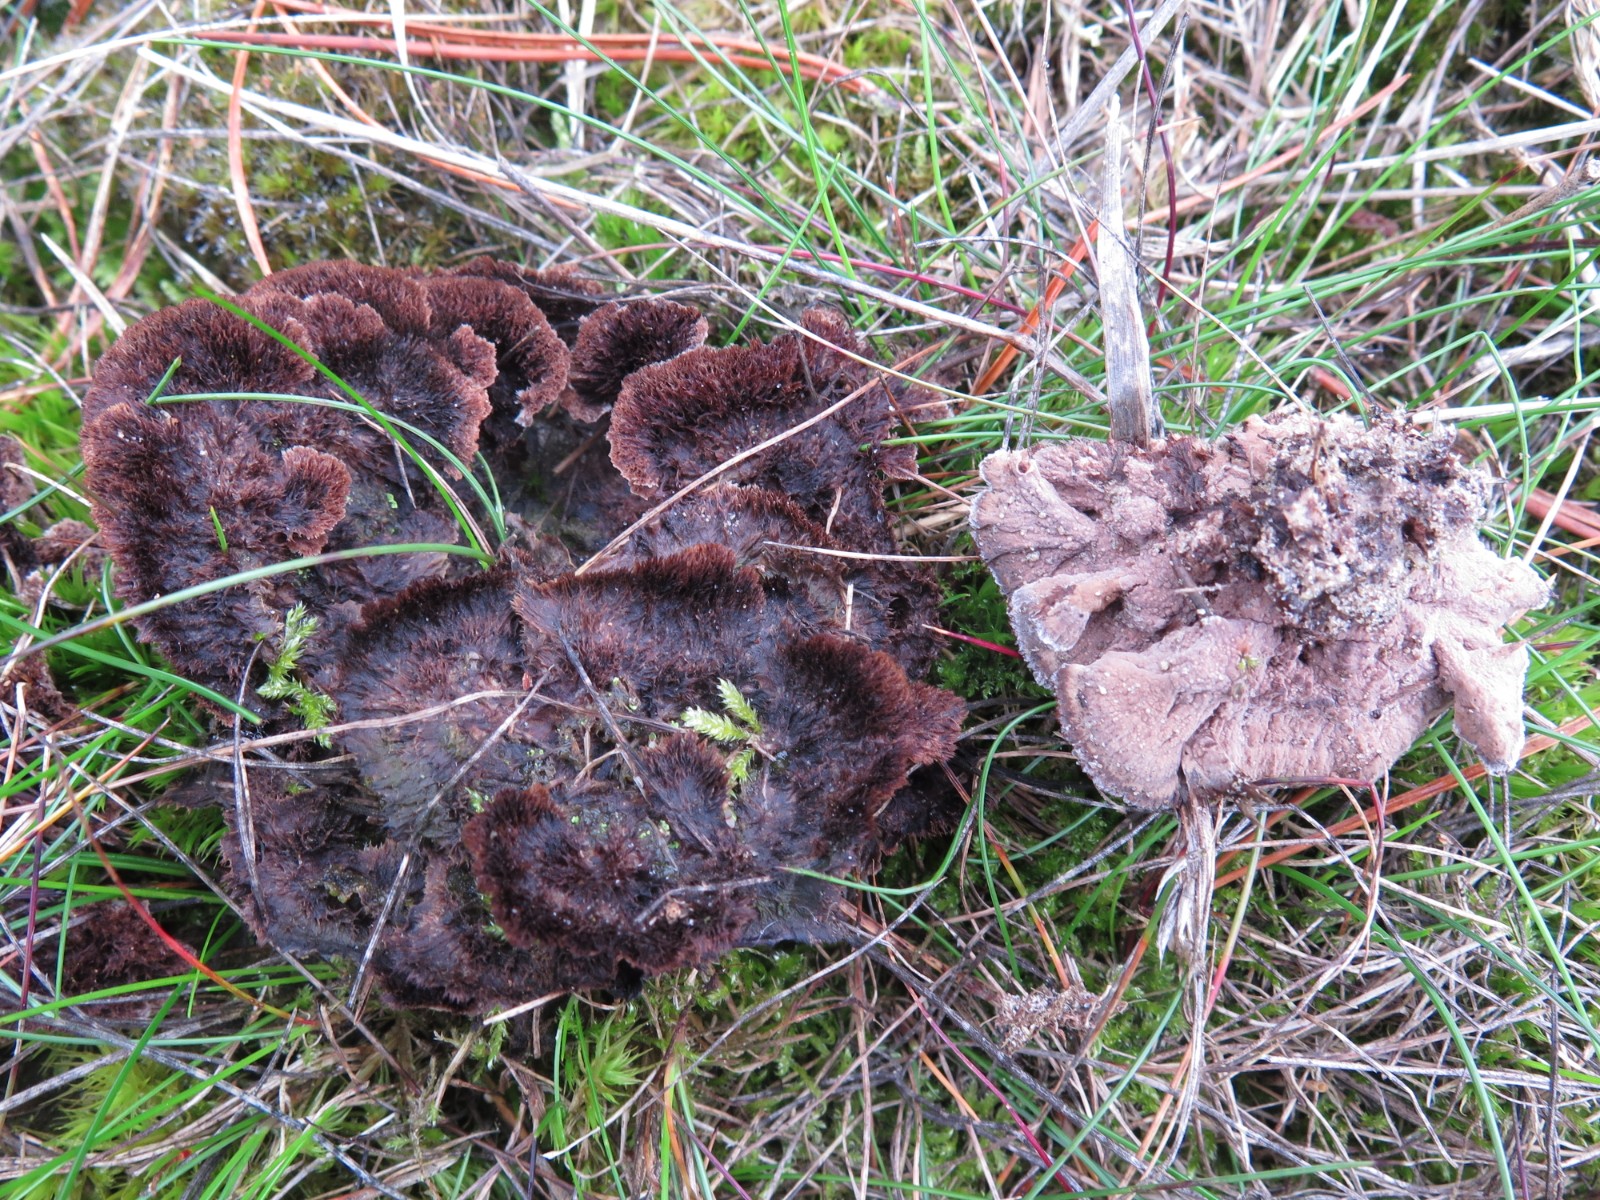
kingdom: Fungi
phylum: Basidiomycota
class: Agaricomycetes
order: Thelephorales
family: Thelephoraceae
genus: Thelephora
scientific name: Thelephora terrestris
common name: fliget frynsesvamp
